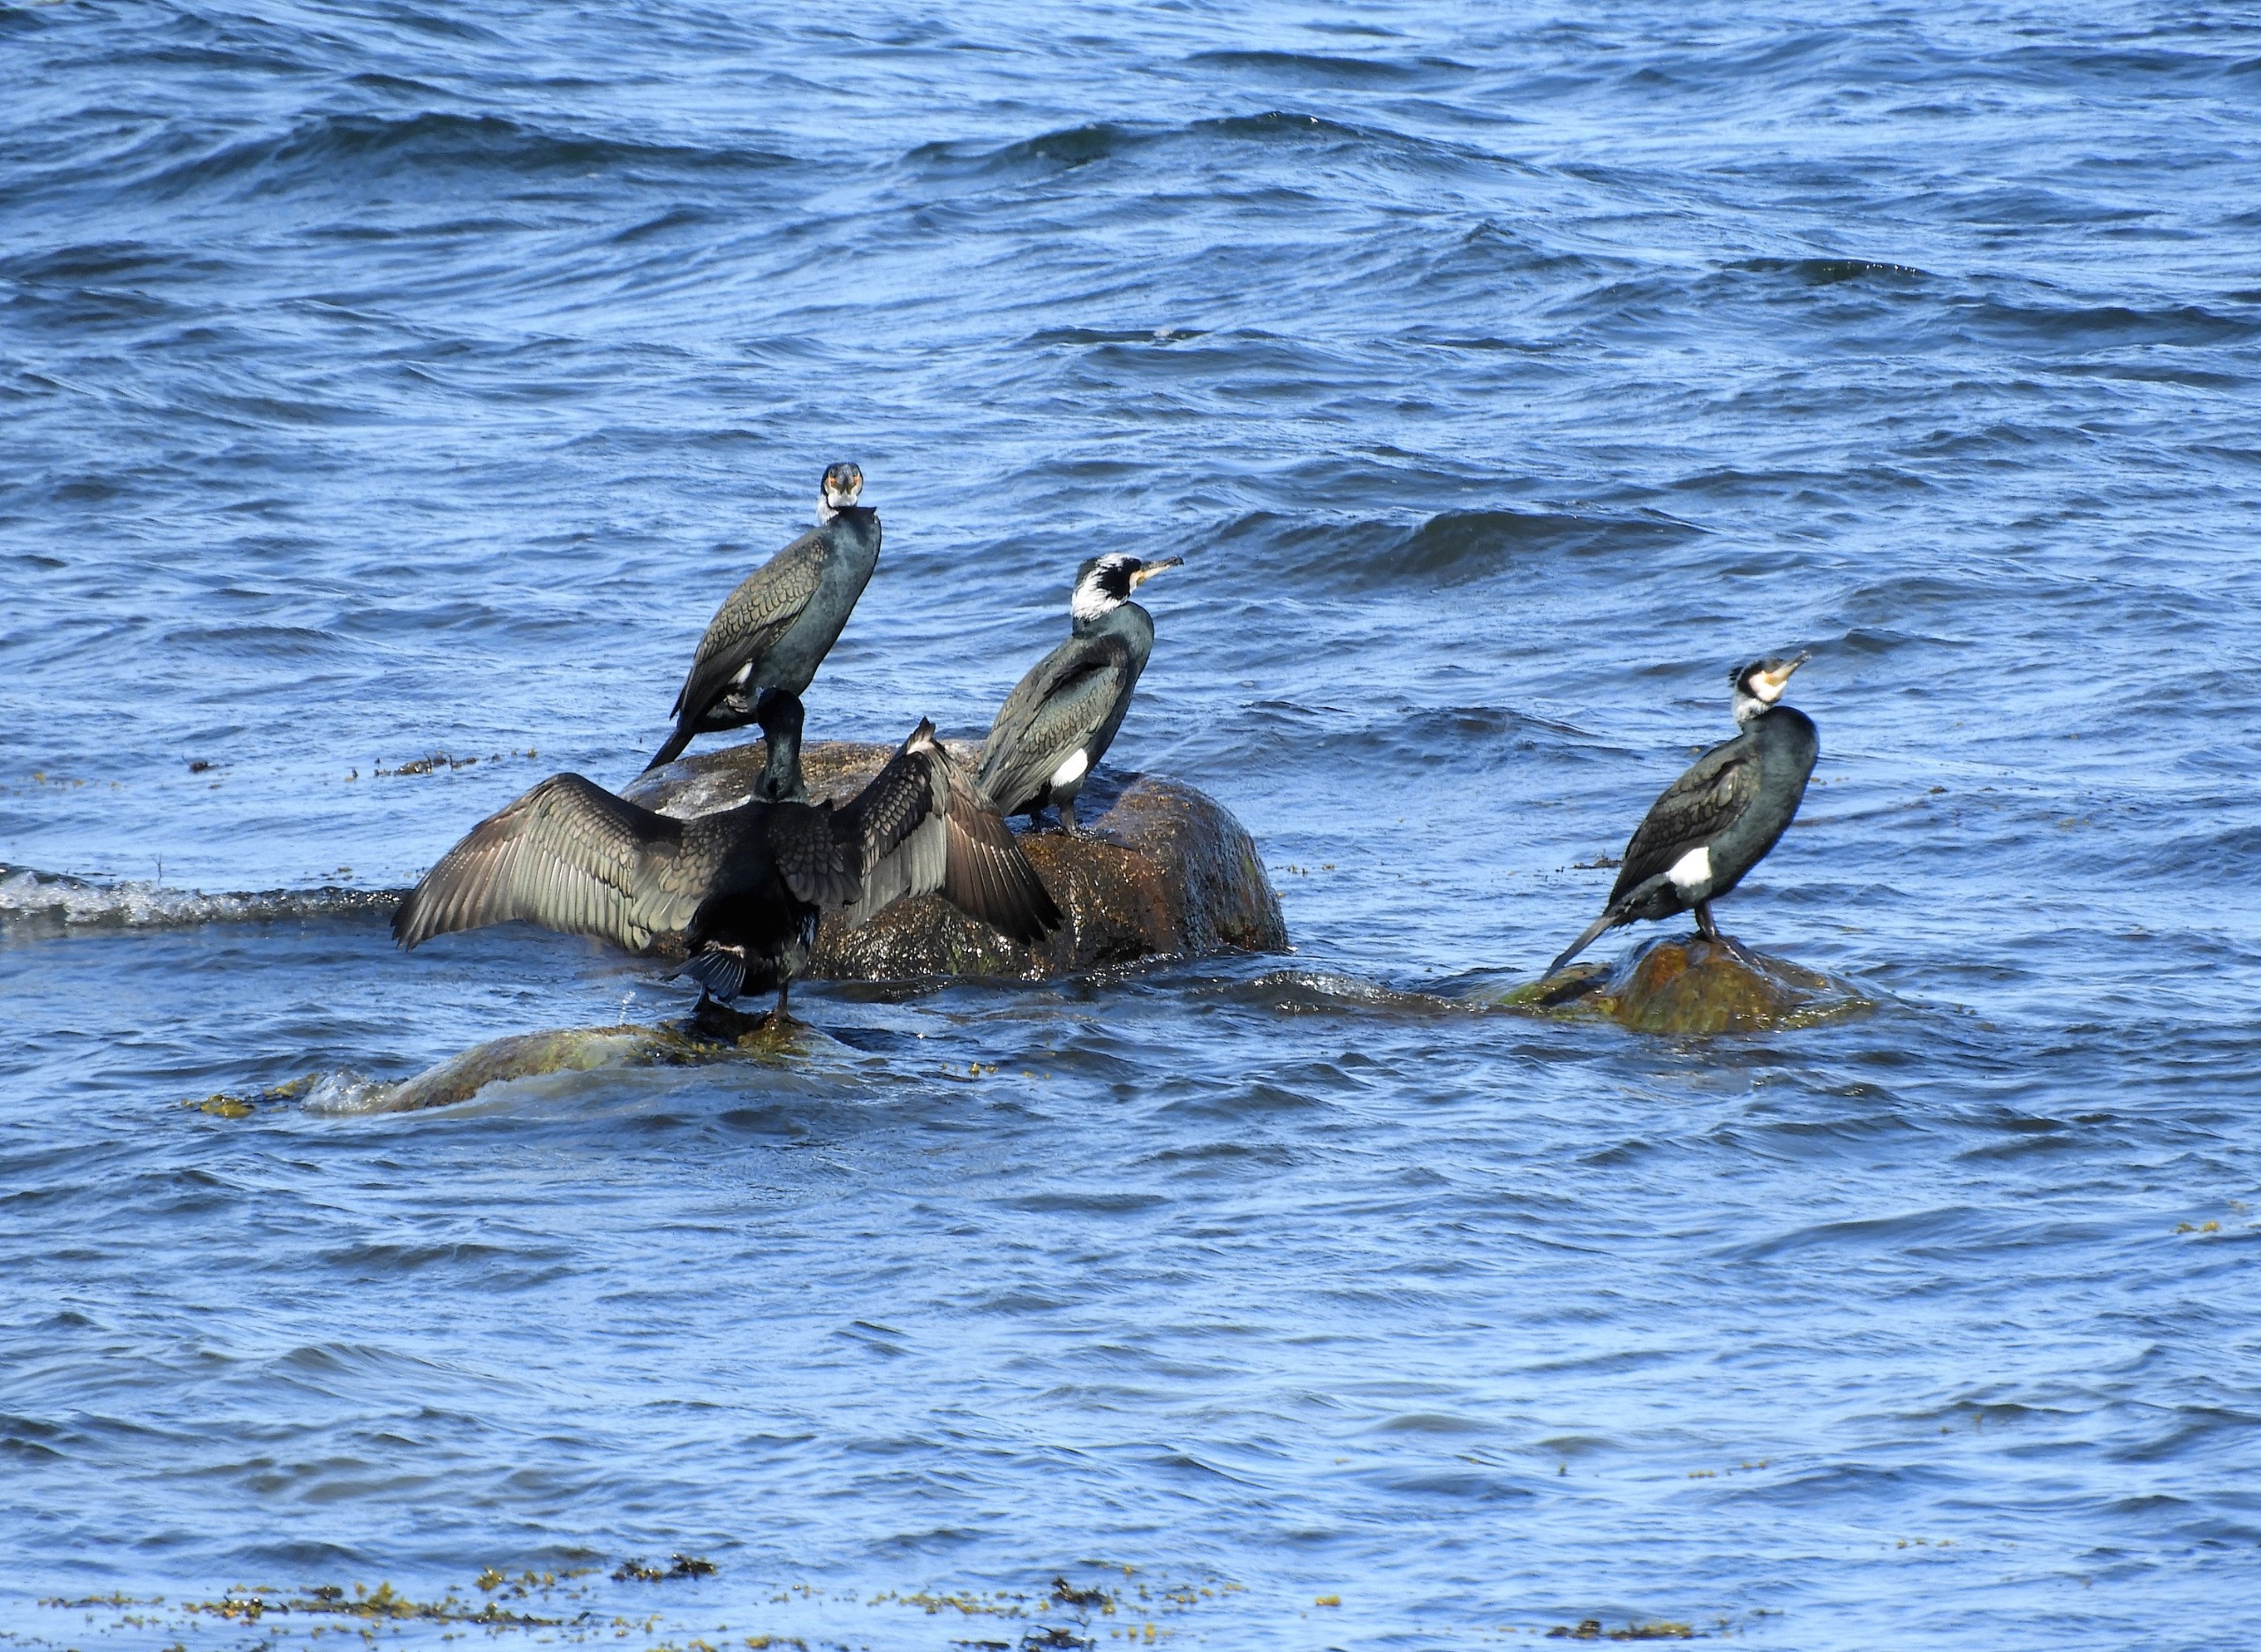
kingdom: Animalia
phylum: Chordata
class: Aves
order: Suliformes
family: Phalacrocoracidae
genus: Phalacrocorax
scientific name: Phalacrocorax carbo
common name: Skarv
